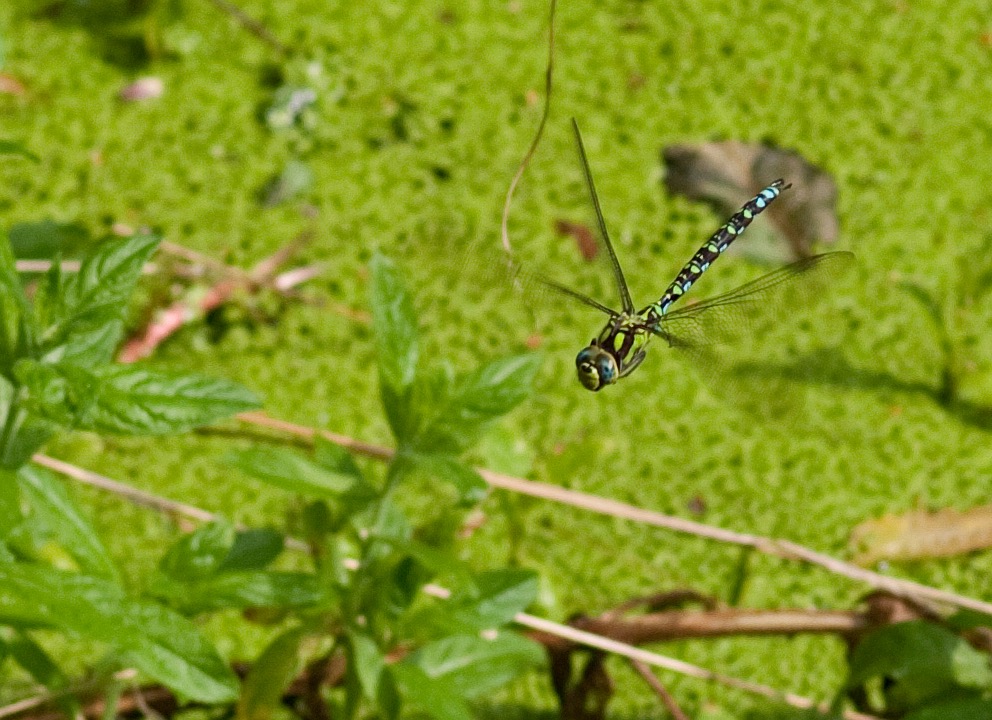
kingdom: Animalia
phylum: Arthropoda
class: Insecta
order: Odonata
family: Aeshnidae
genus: Aeshna
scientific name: Aeshna cyanea
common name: Blå mosaikguldsmed
